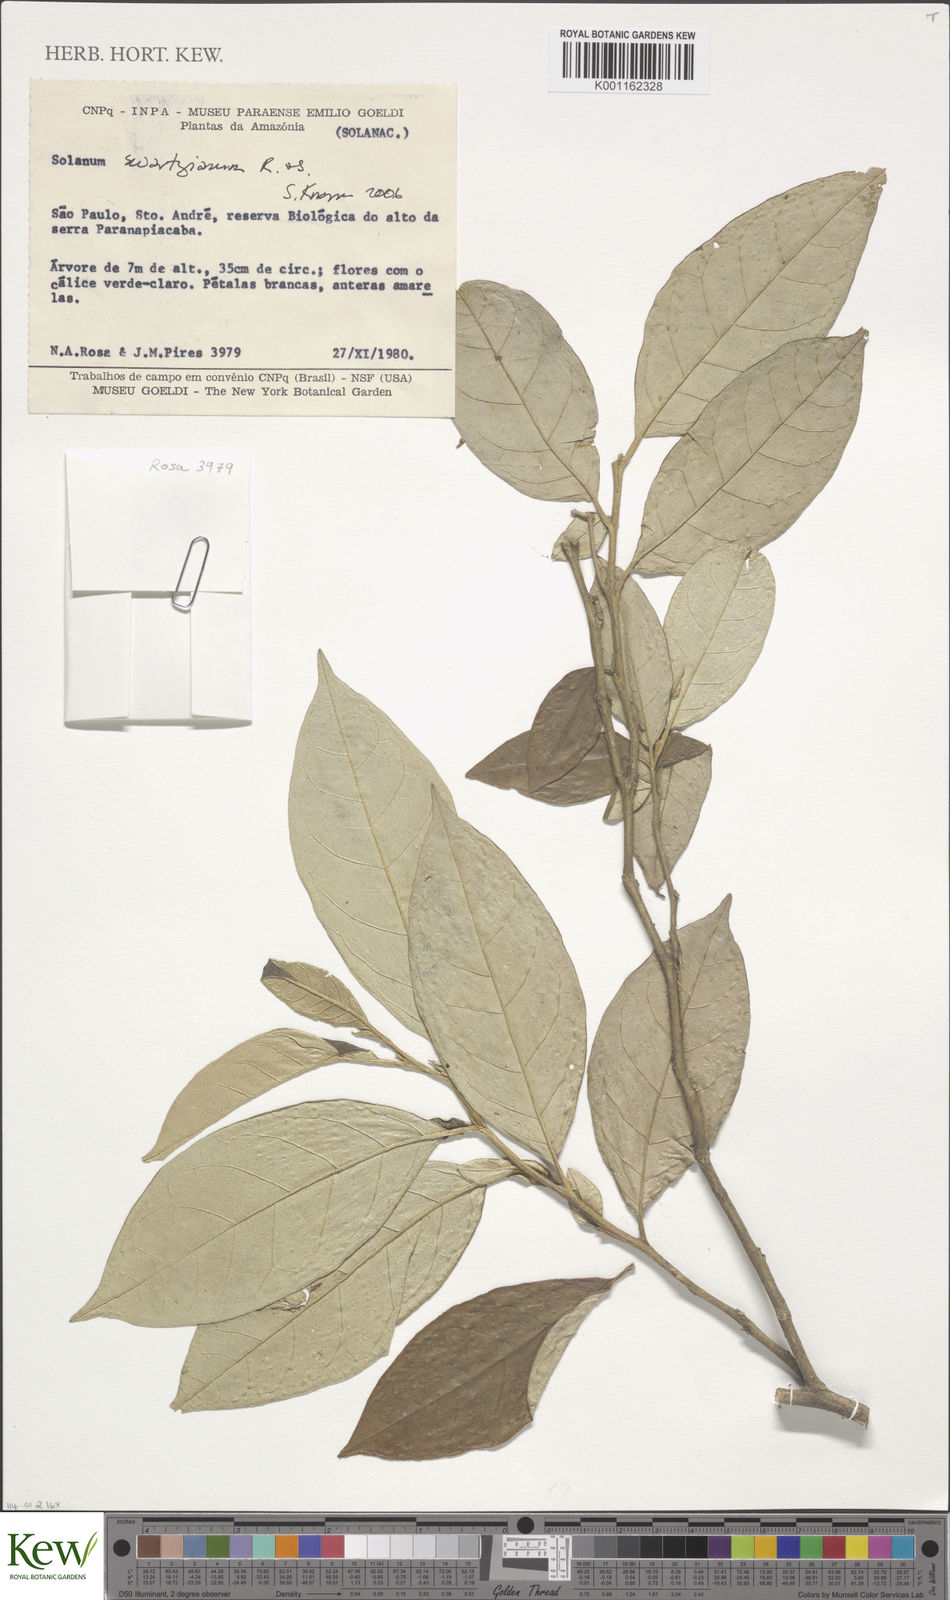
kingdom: Plantae
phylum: Tracheophyta
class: Magnoliopsida
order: Solanales
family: Solanaceae
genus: Solanum
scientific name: Solanum swartzianum
